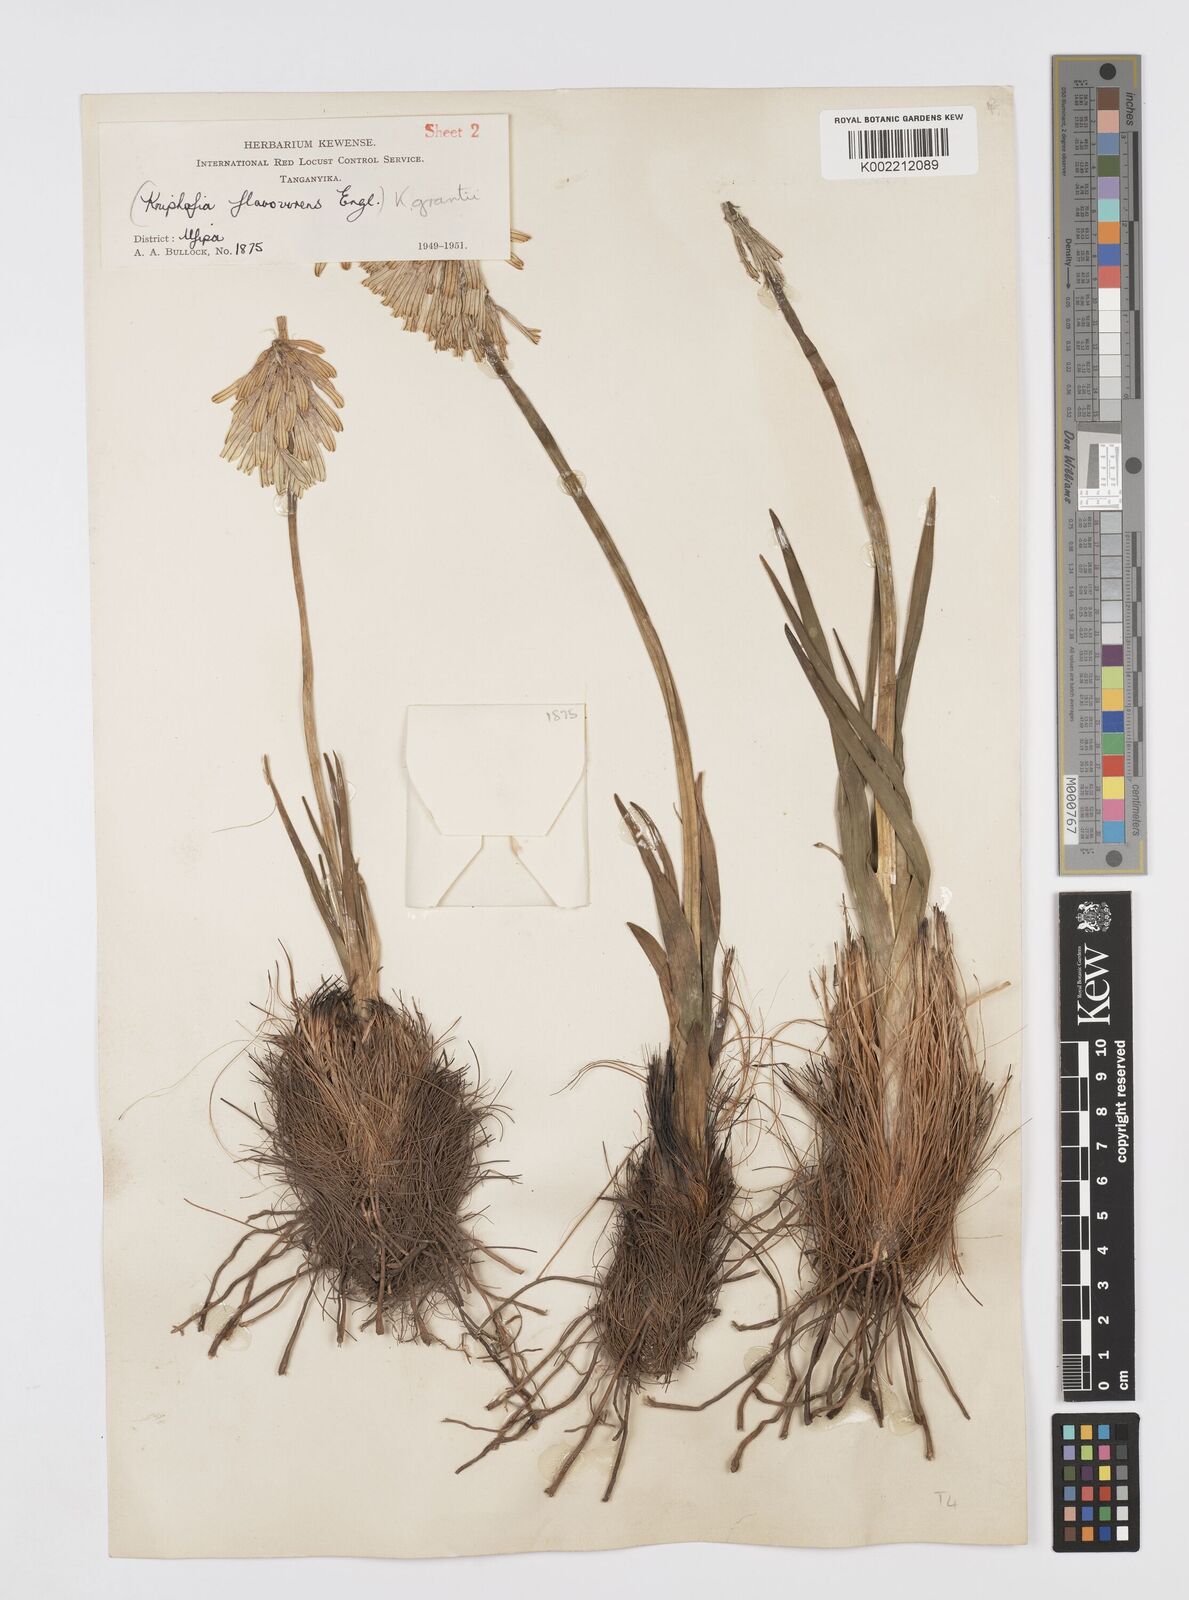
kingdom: Plantae
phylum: Tracheophyta
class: Liliopsida
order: Asparagales
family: Asphodelaceae
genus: Kniphofia
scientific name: Kniphofia grantii
